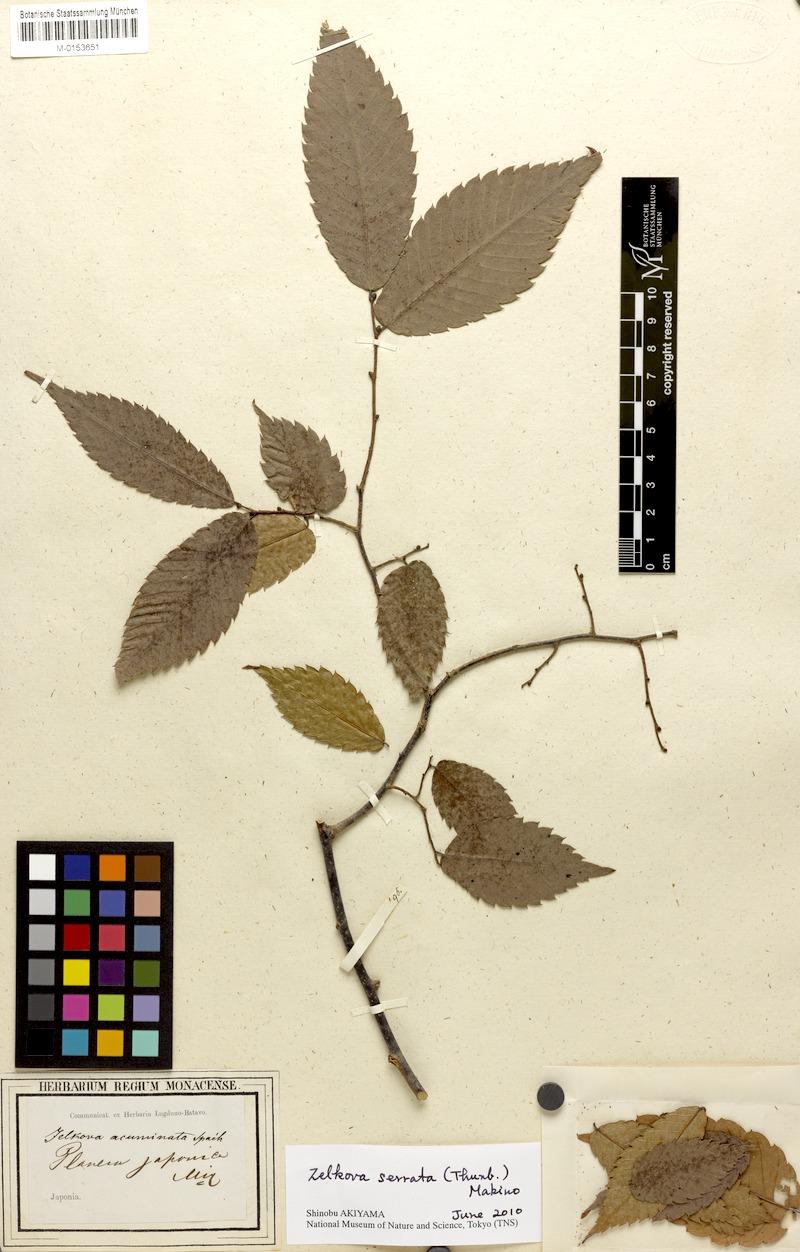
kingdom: Plantae
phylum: Tracheophyta
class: Magnoliopsida
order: Rosales
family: Ulmaceae
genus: Zelkova
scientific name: Zelkova serrata
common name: Japanese zelkova
